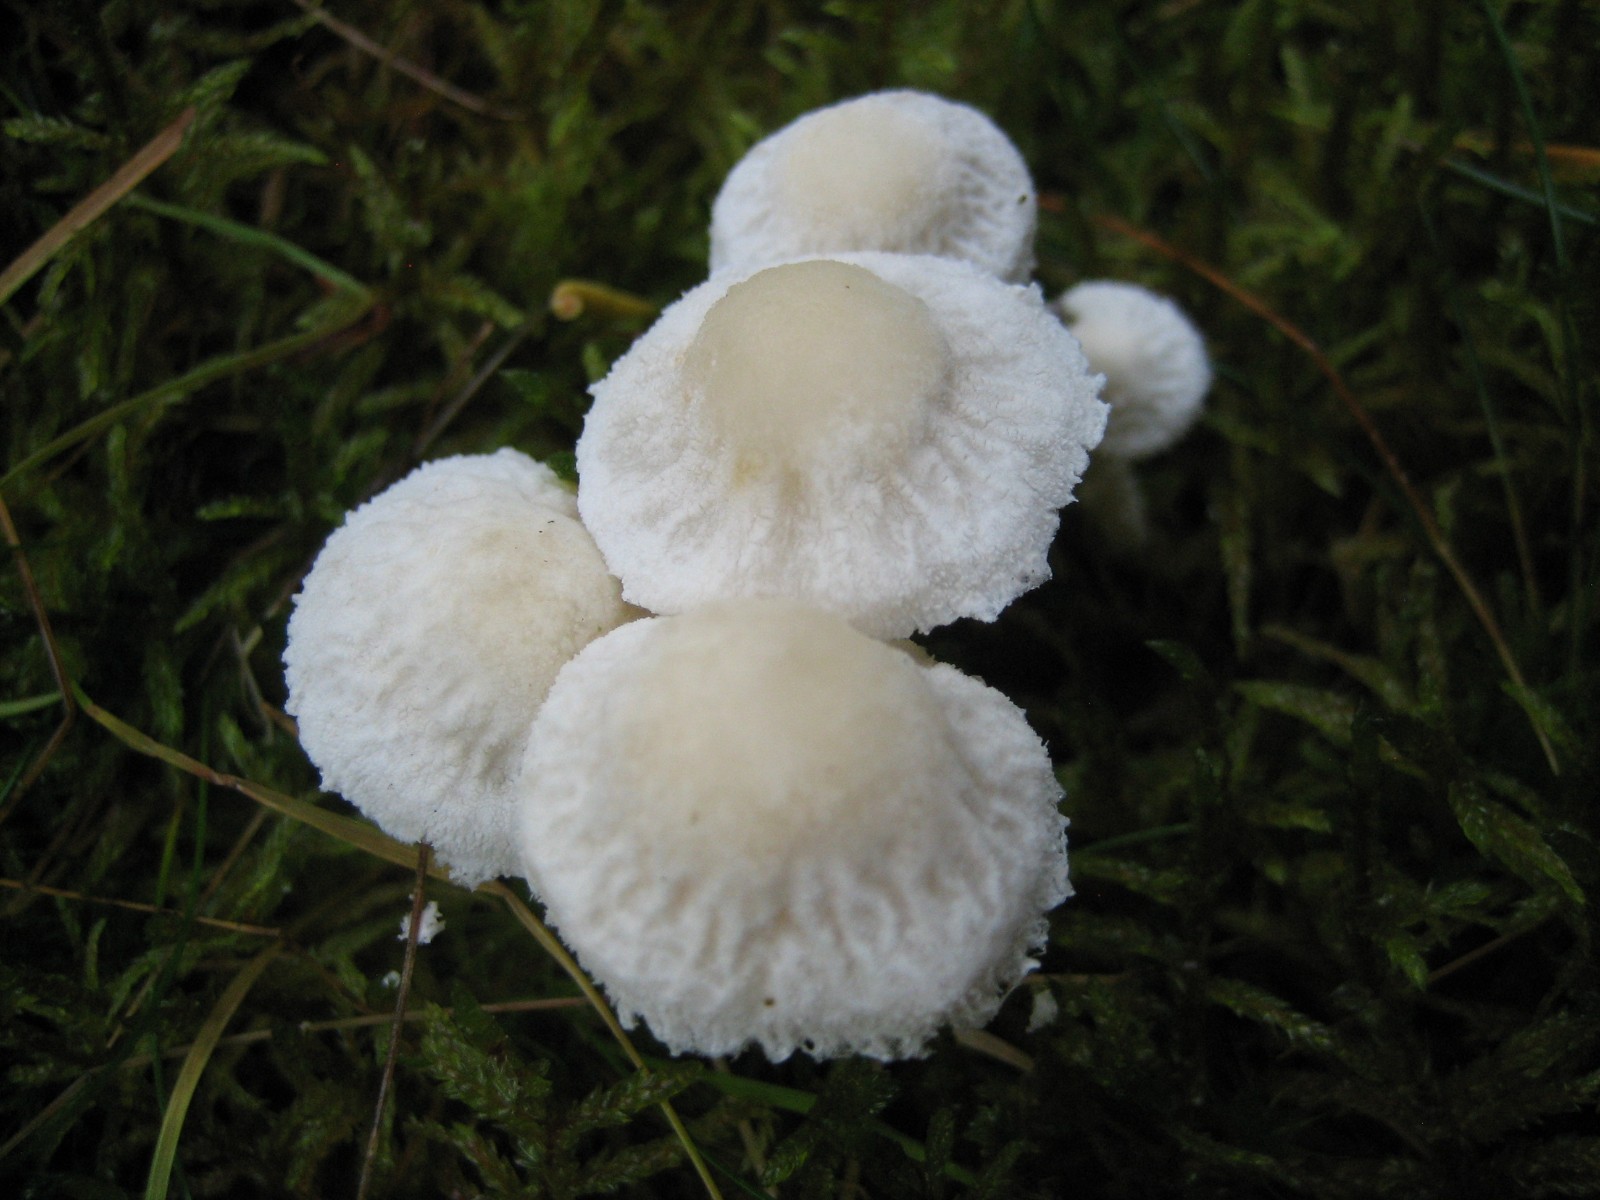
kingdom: Fungi
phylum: Basidiomycota
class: Agaricomycetes
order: Agaricales
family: Tricholomataceae
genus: Cystoderma
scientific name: Cystoderma
